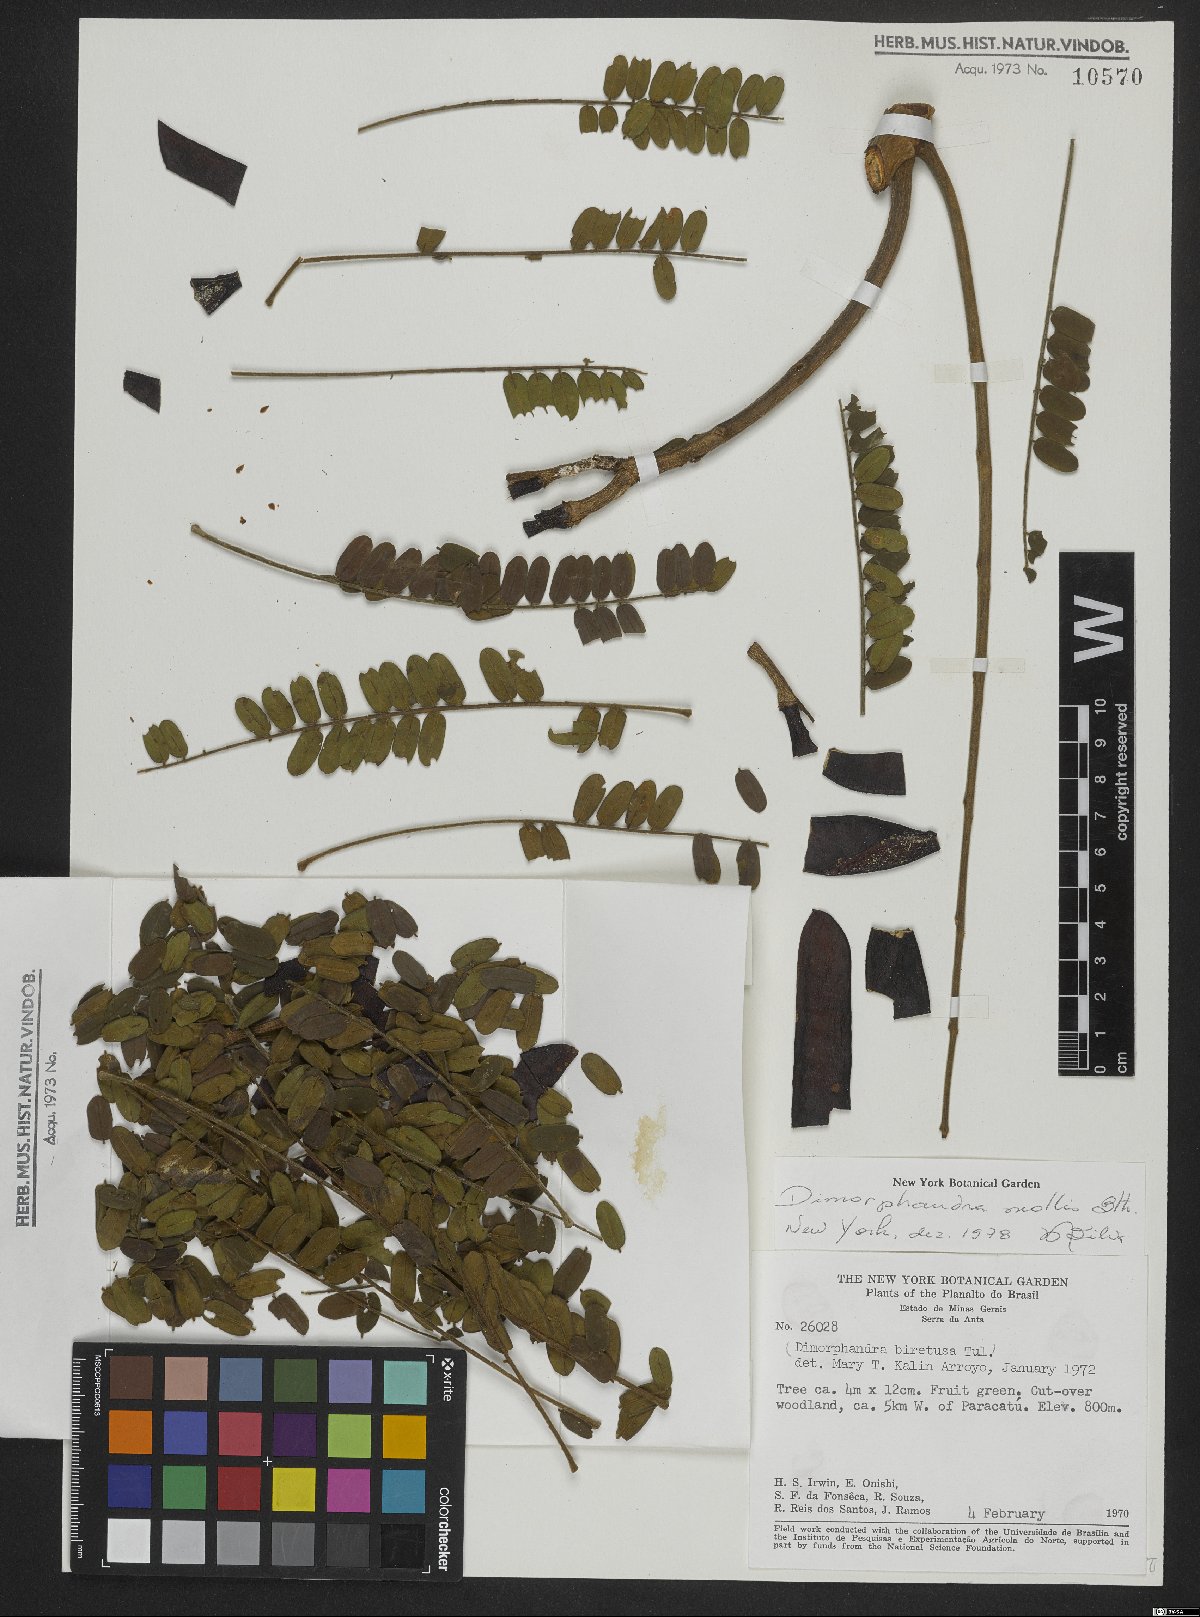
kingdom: Plantae
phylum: Tracheophyta
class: Magnoliopsida
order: Fabales
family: Fabaceae
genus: Dimorphandra
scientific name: Dimorphandra mollis
